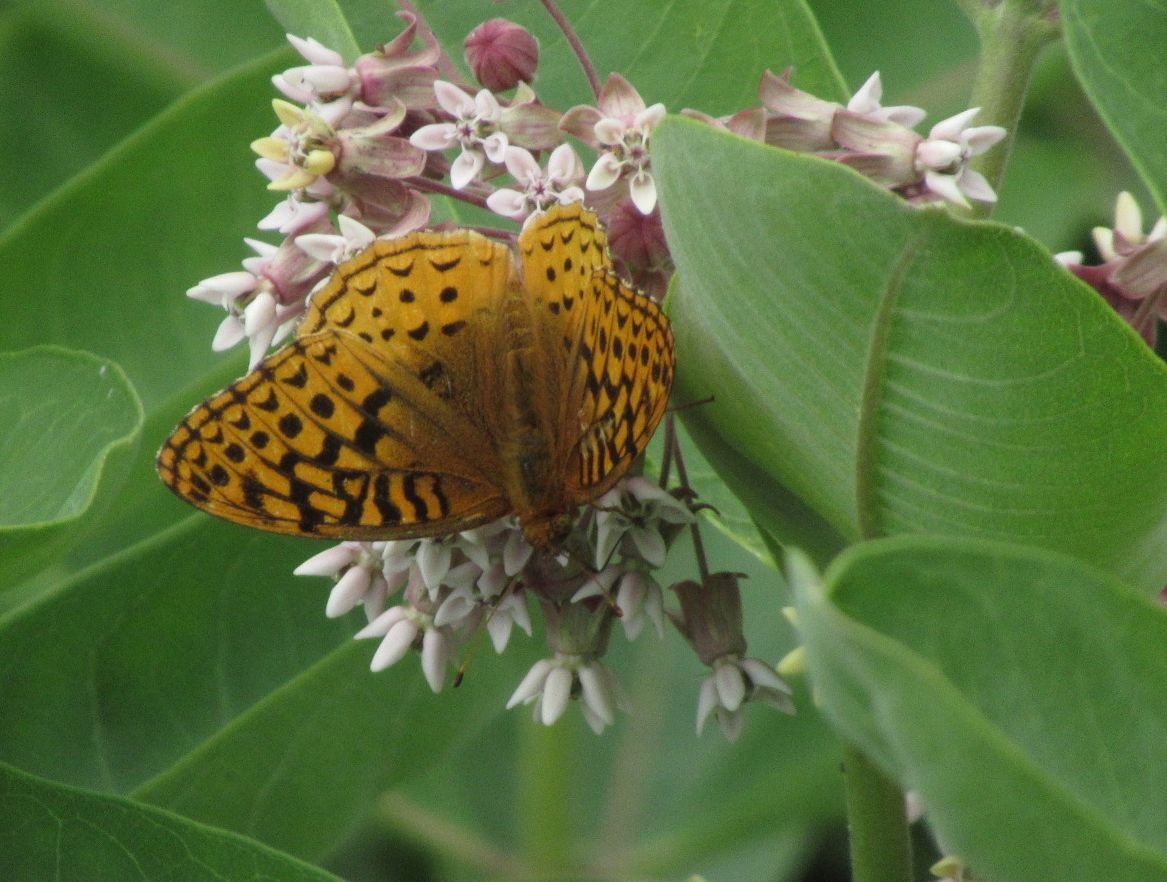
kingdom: Animalia
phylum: Arthropoda
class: Insecta
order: Lepidoptera
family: Nymphalidae
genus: Speyeria
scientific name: Speyeria cybele
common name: Great Spangled Fritillary
